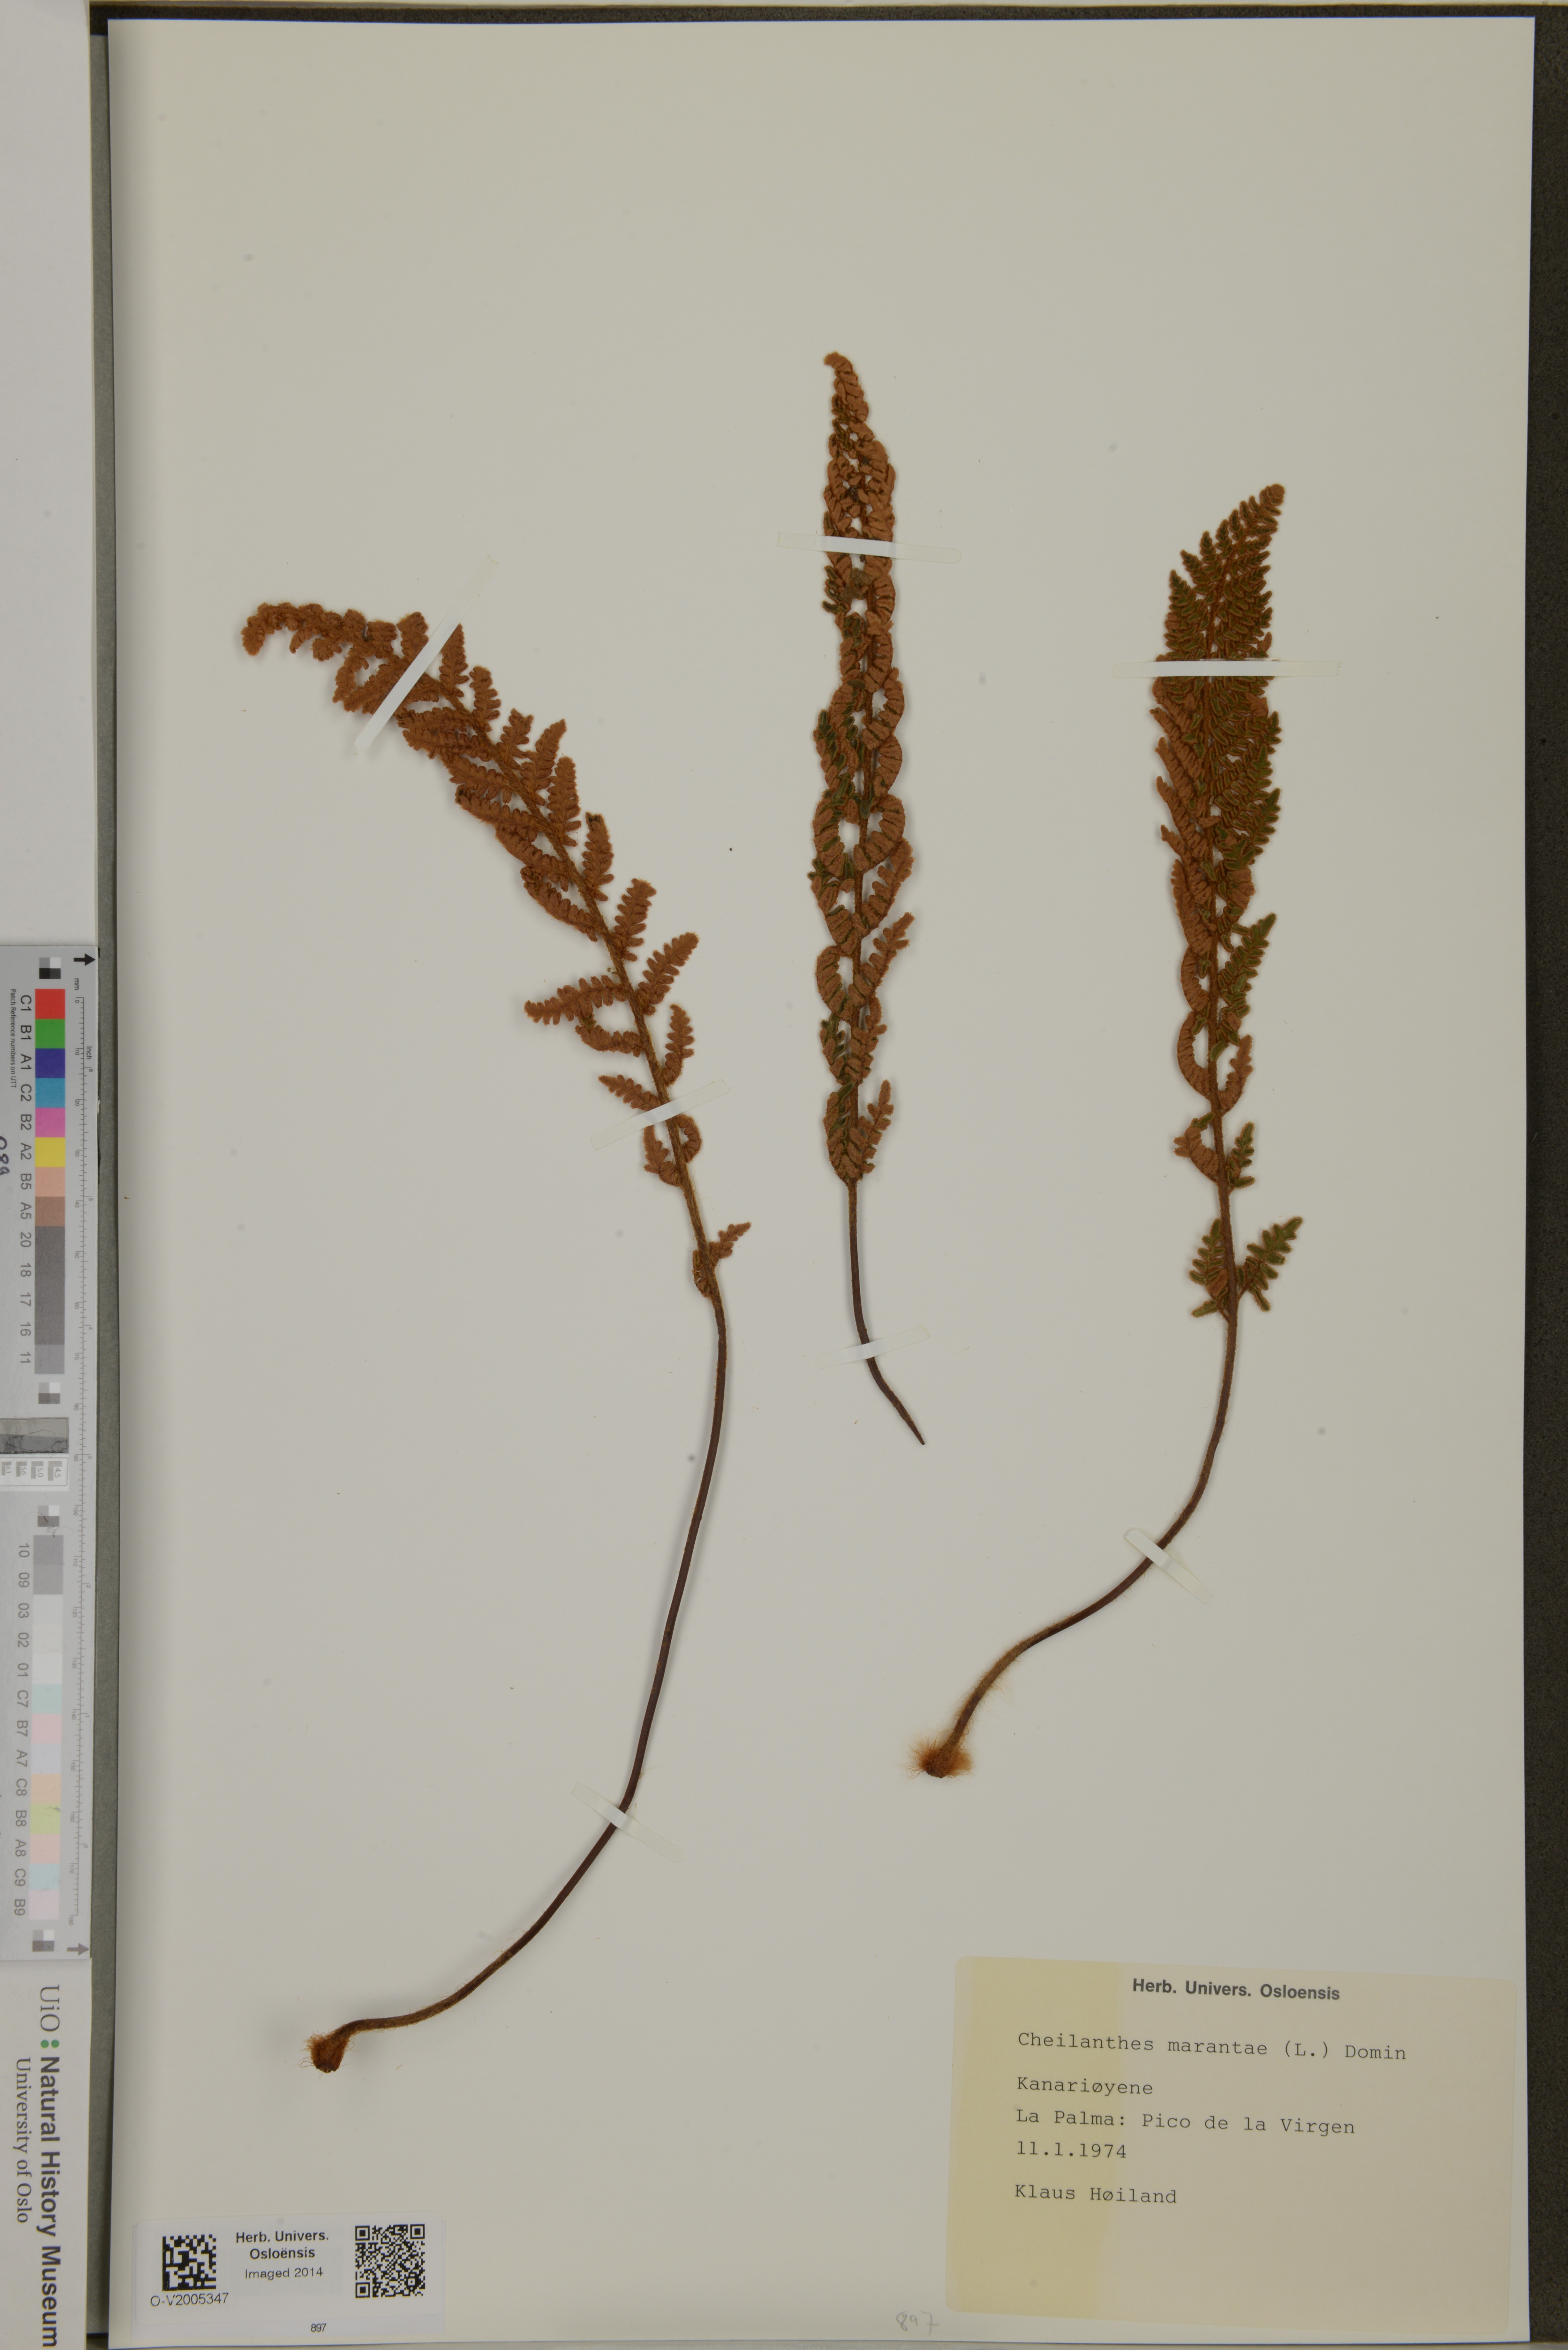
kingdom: Plantae
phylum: Tracheophyta
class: Polypodiopsida
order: Polypodiales
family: Pteridaceae
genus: Paragymnopteris
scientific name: Paragymnopteris marantae
